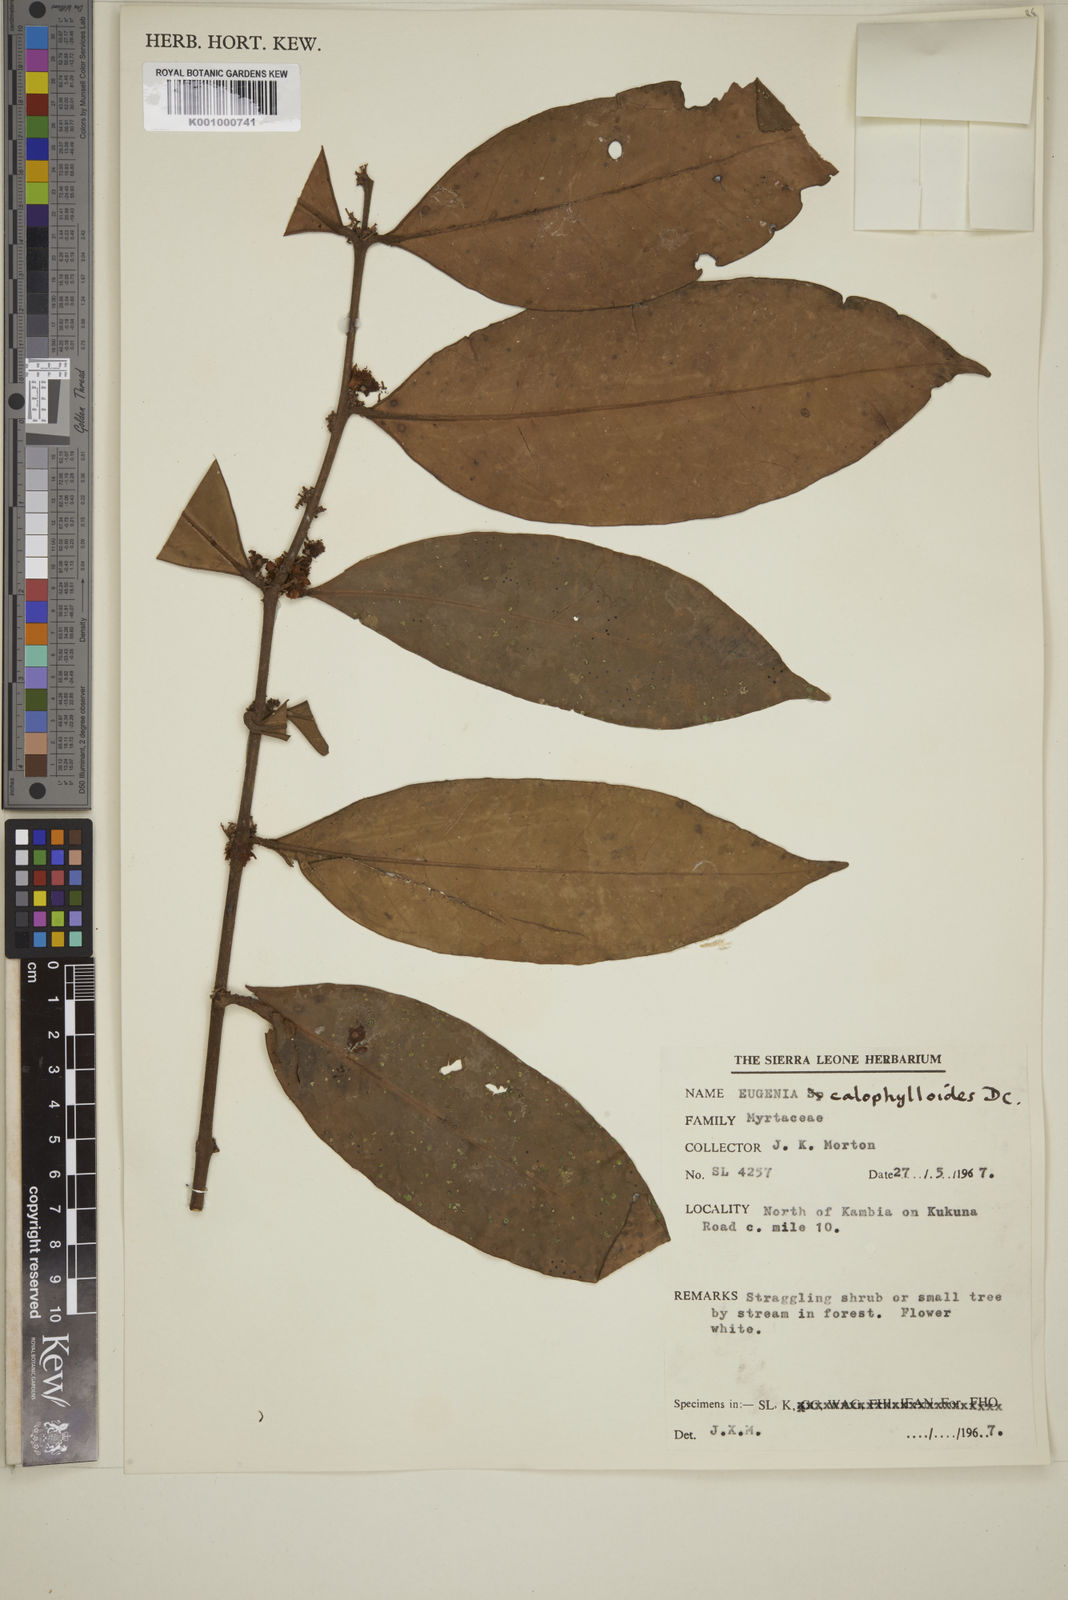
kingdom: Plantae
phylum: Tracheophyta
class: Magnoliopsida
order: Myrtales
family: Myrtaceae
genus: Eugenia
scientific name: Eugenia calophylloides
